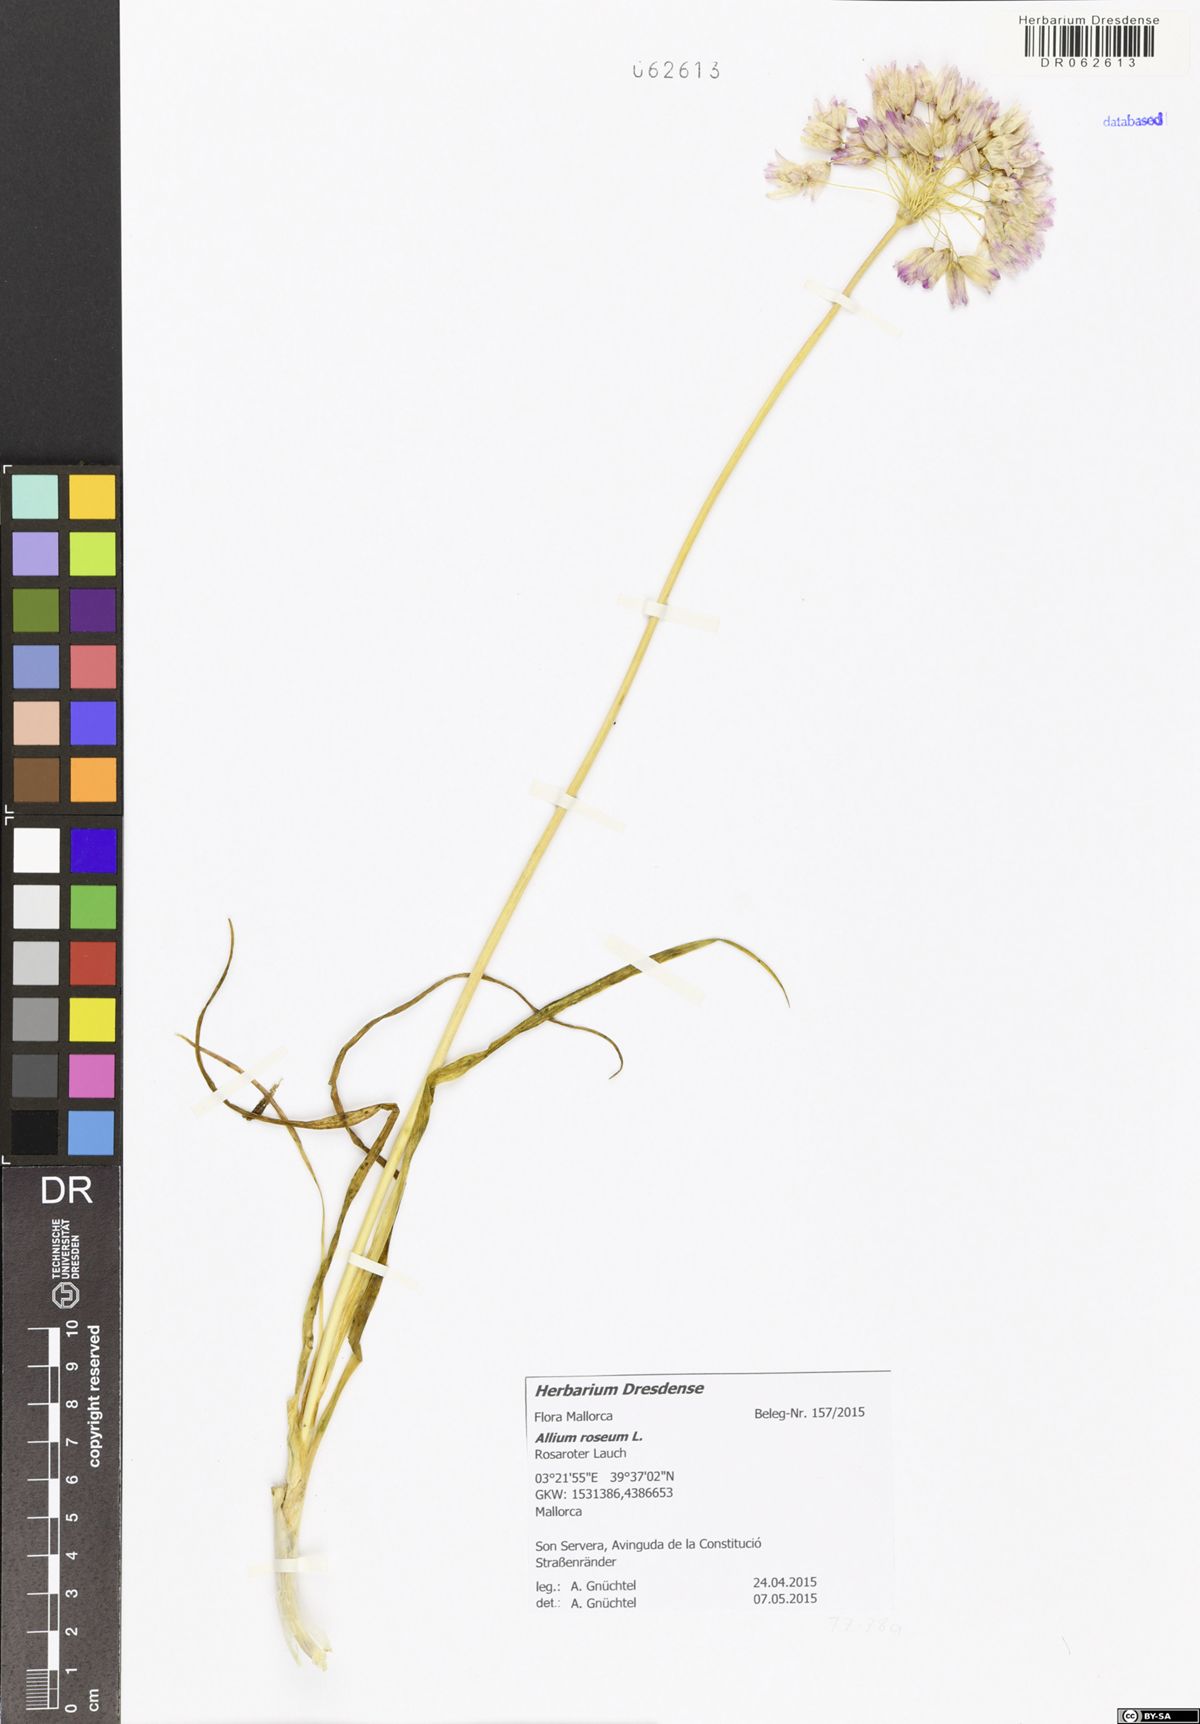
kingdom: Plantae
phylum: Tracheophyta
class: Liliopsida
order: Asparagales
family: Amaryllidaceae
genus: Allium
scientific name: Allium roseum
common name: Rosy garlic
